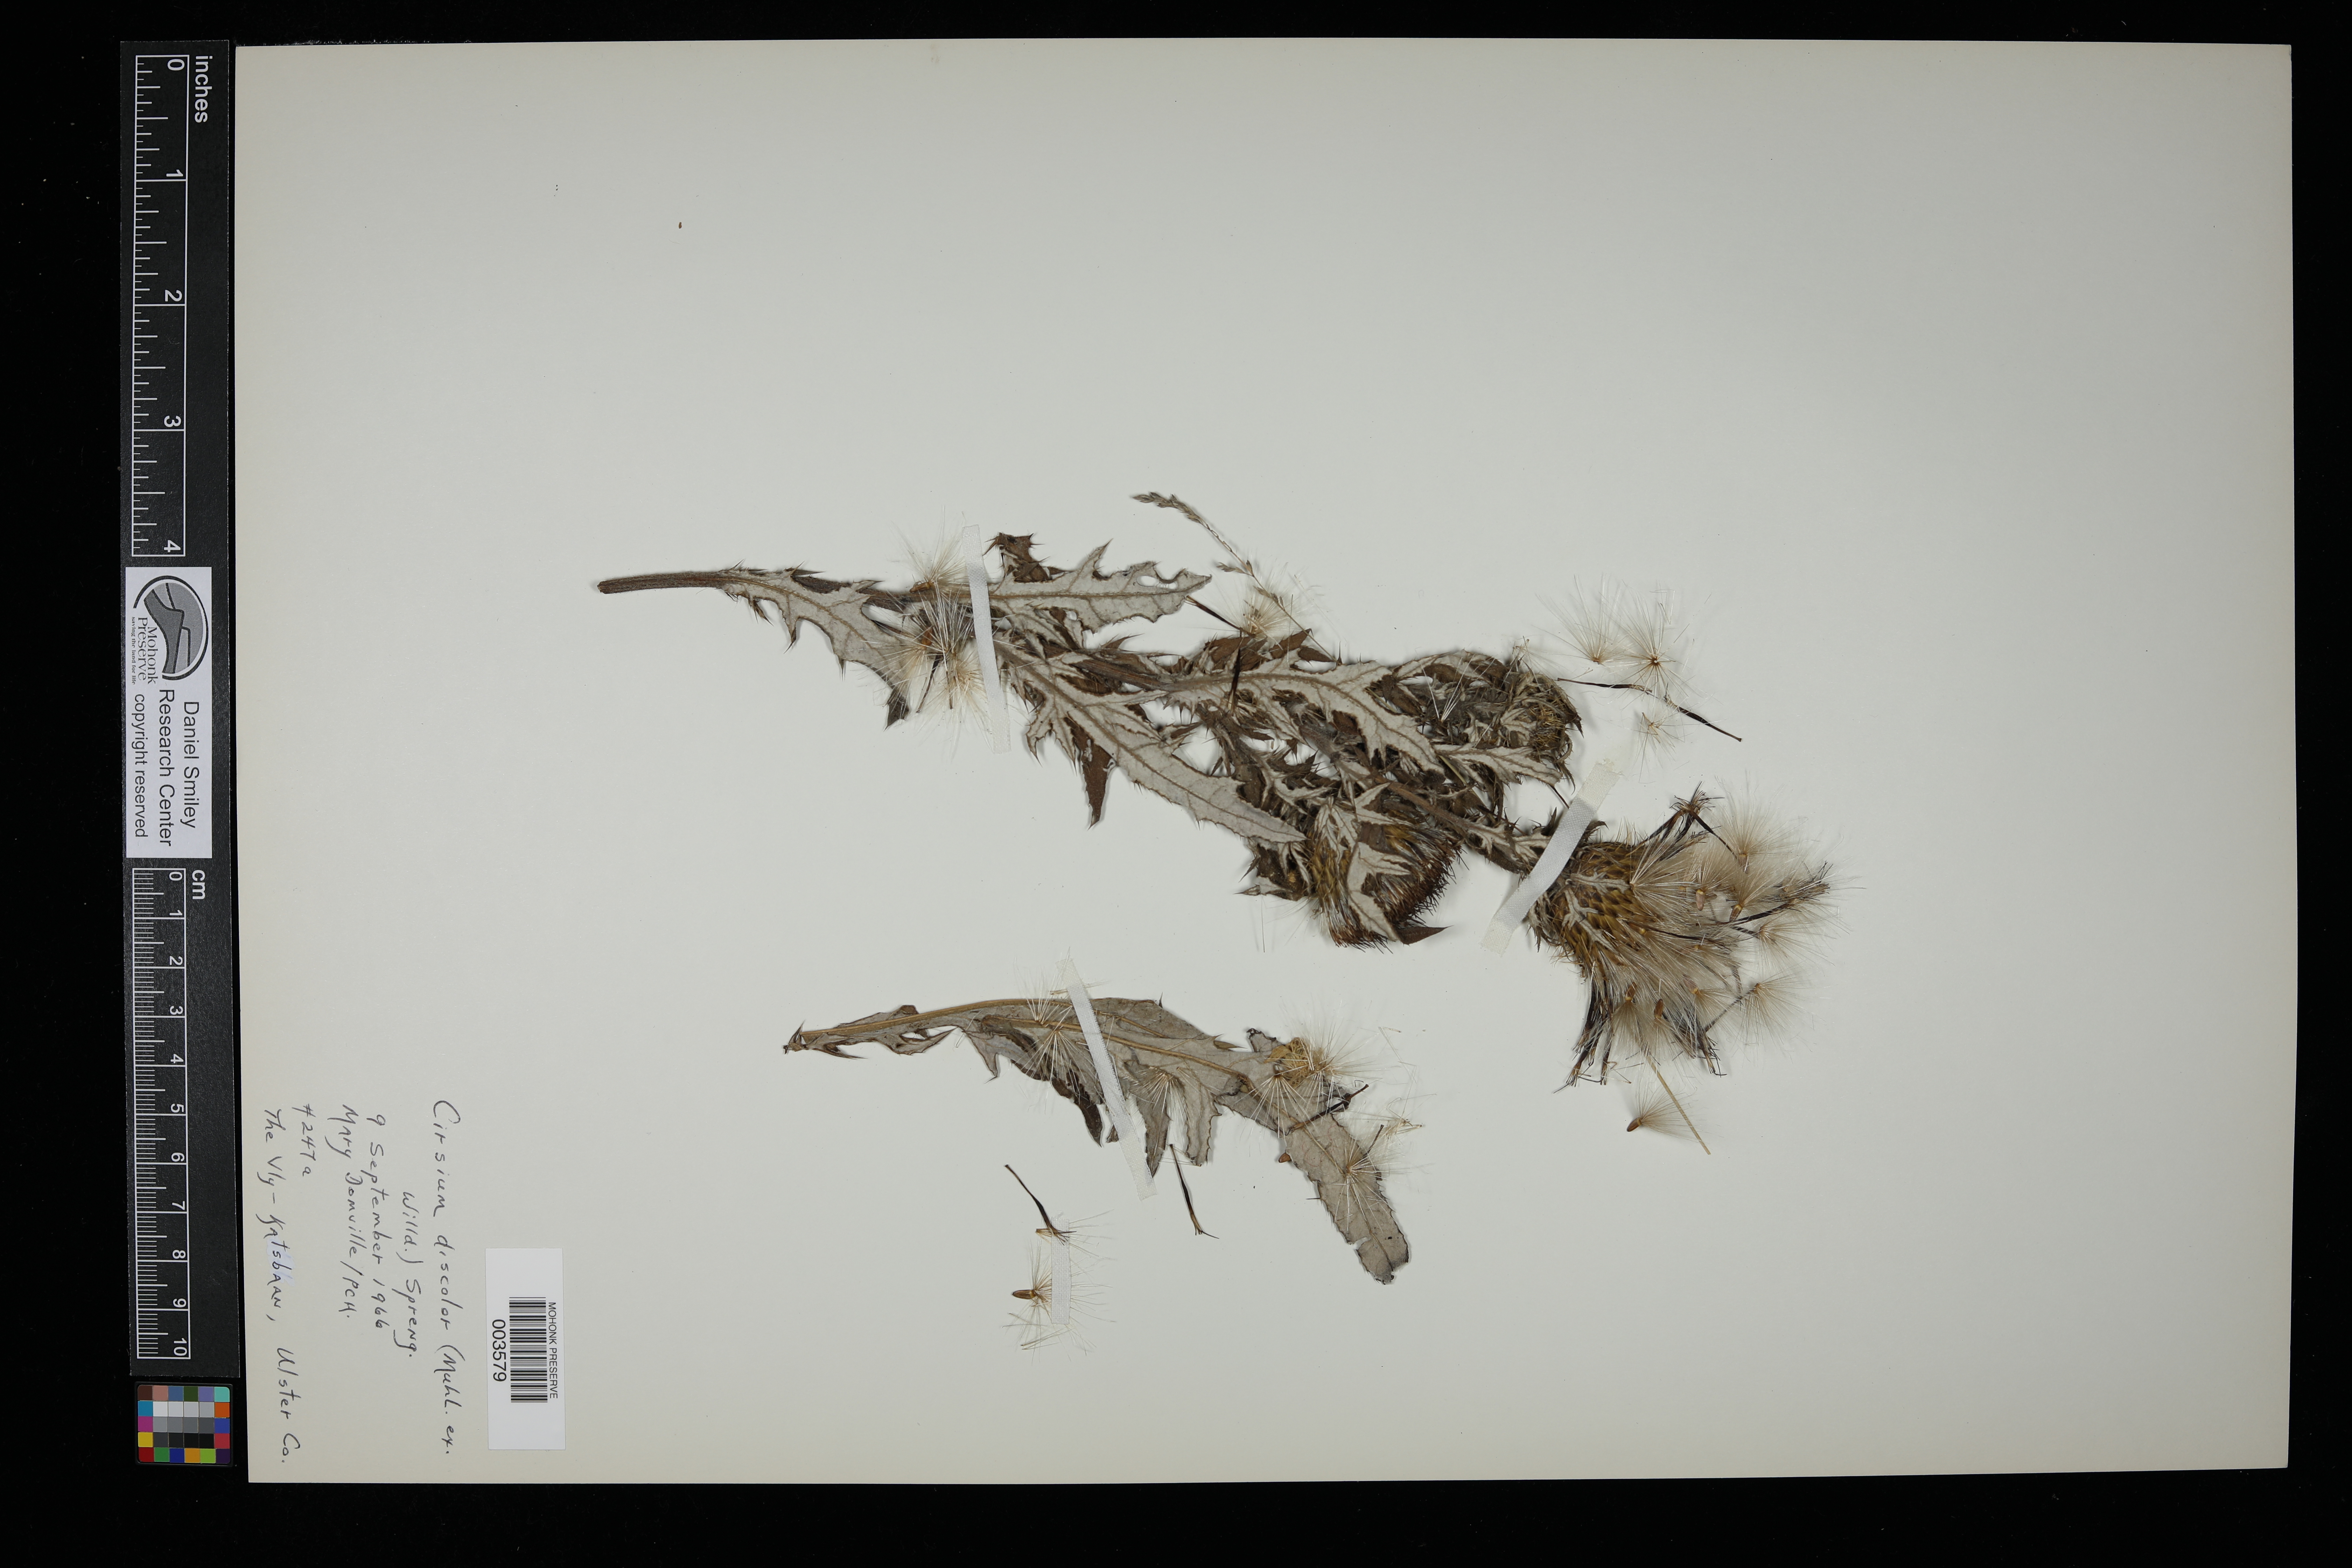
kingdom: Plantae
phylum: Tracheophyta
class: Magnoliopsida
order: Asterales
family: Asteraceae
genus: Cirsium
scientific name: Cirsium discolor
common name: Field thistle
